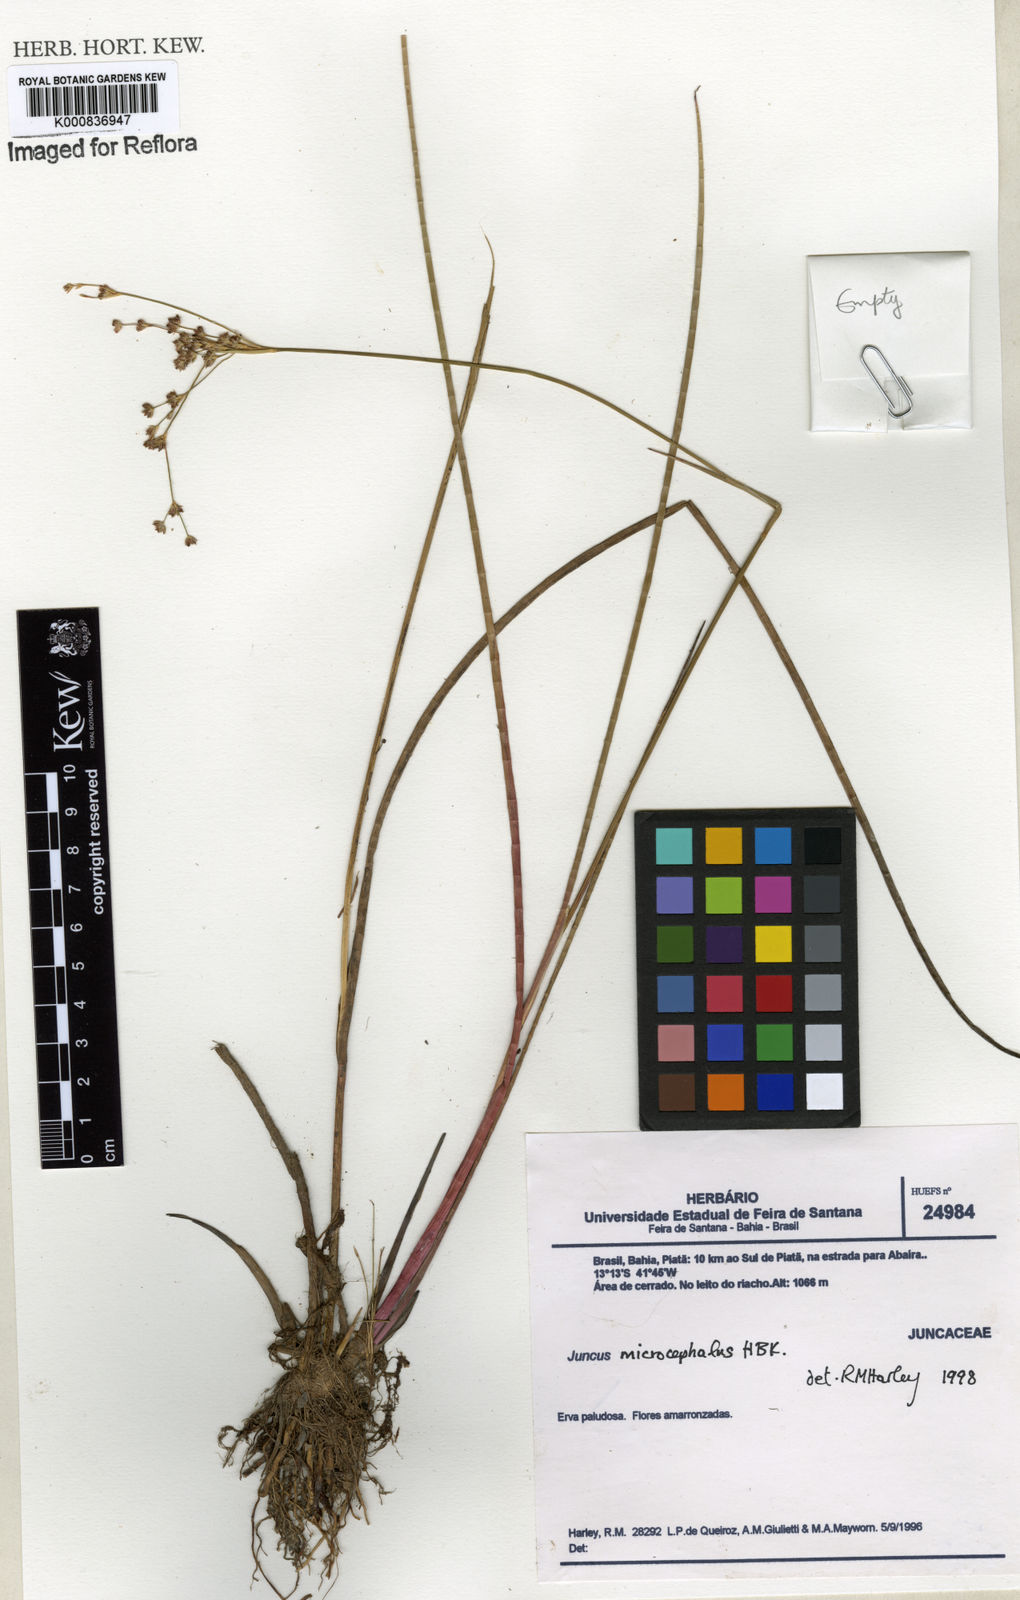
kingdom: Plantae
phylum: Tracheophyta
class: Liliopsida
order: Poales
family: Juncaceae
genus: Juncus
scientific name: Juncus microcephalus
